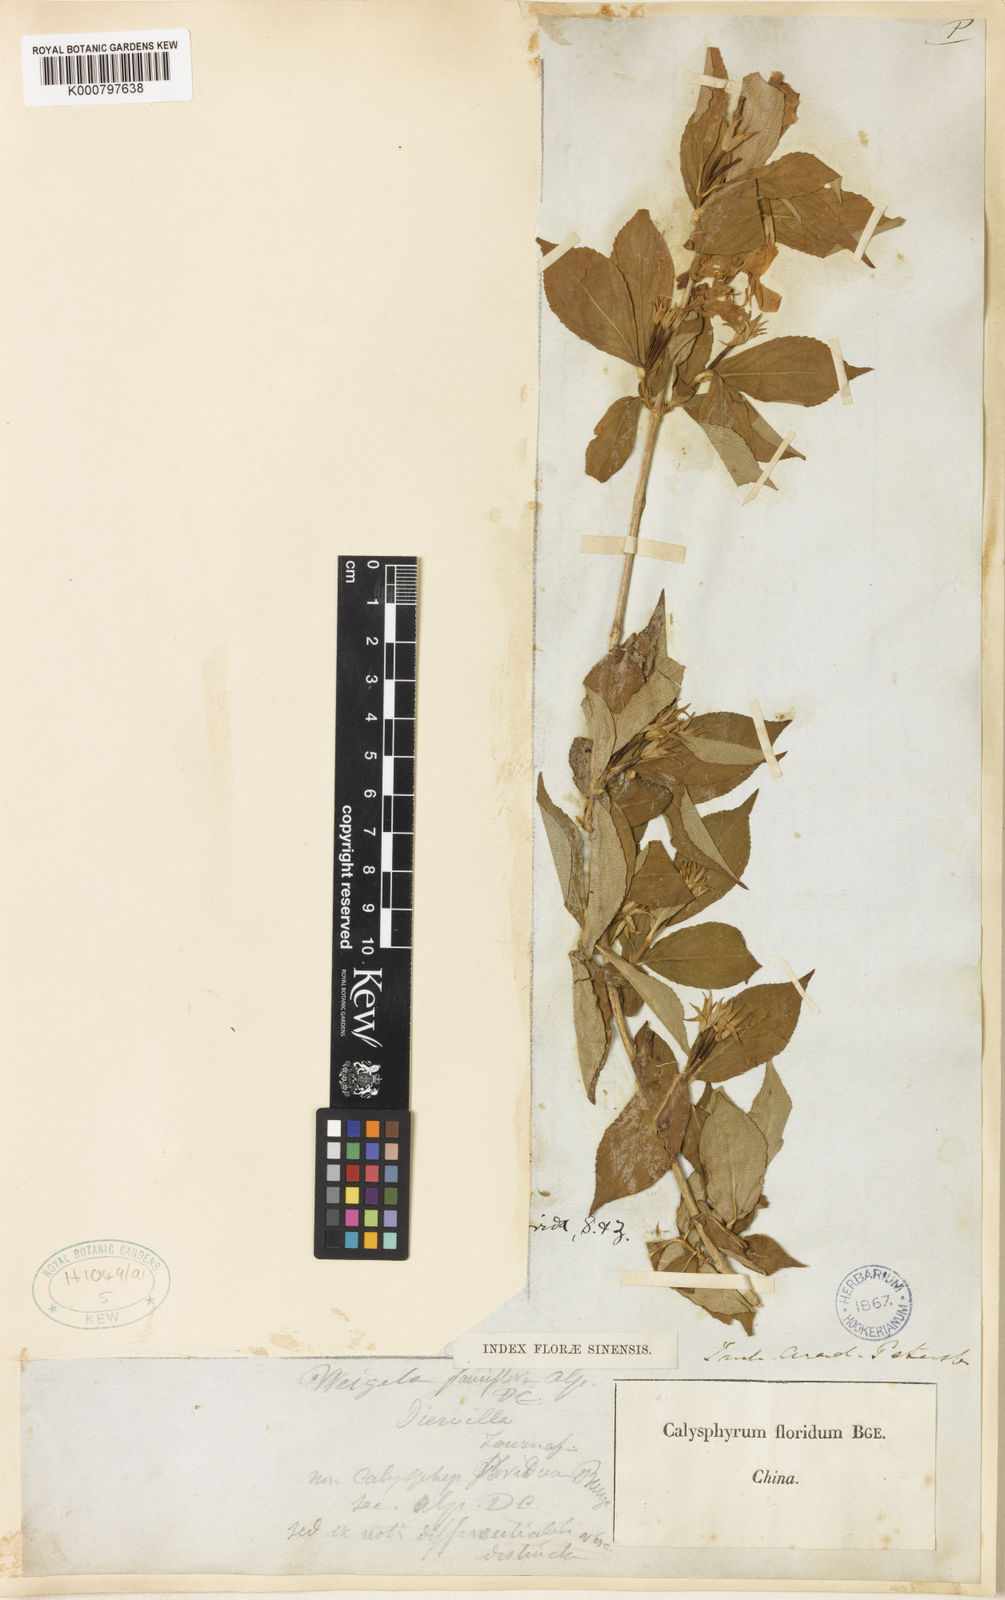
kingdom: Plantae
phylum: Tracheophyta
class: Magnoliopsida
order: Dipsacales
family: Caprifoliaceae
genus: Weigela
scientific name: Weigela florida
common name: Weigelia
